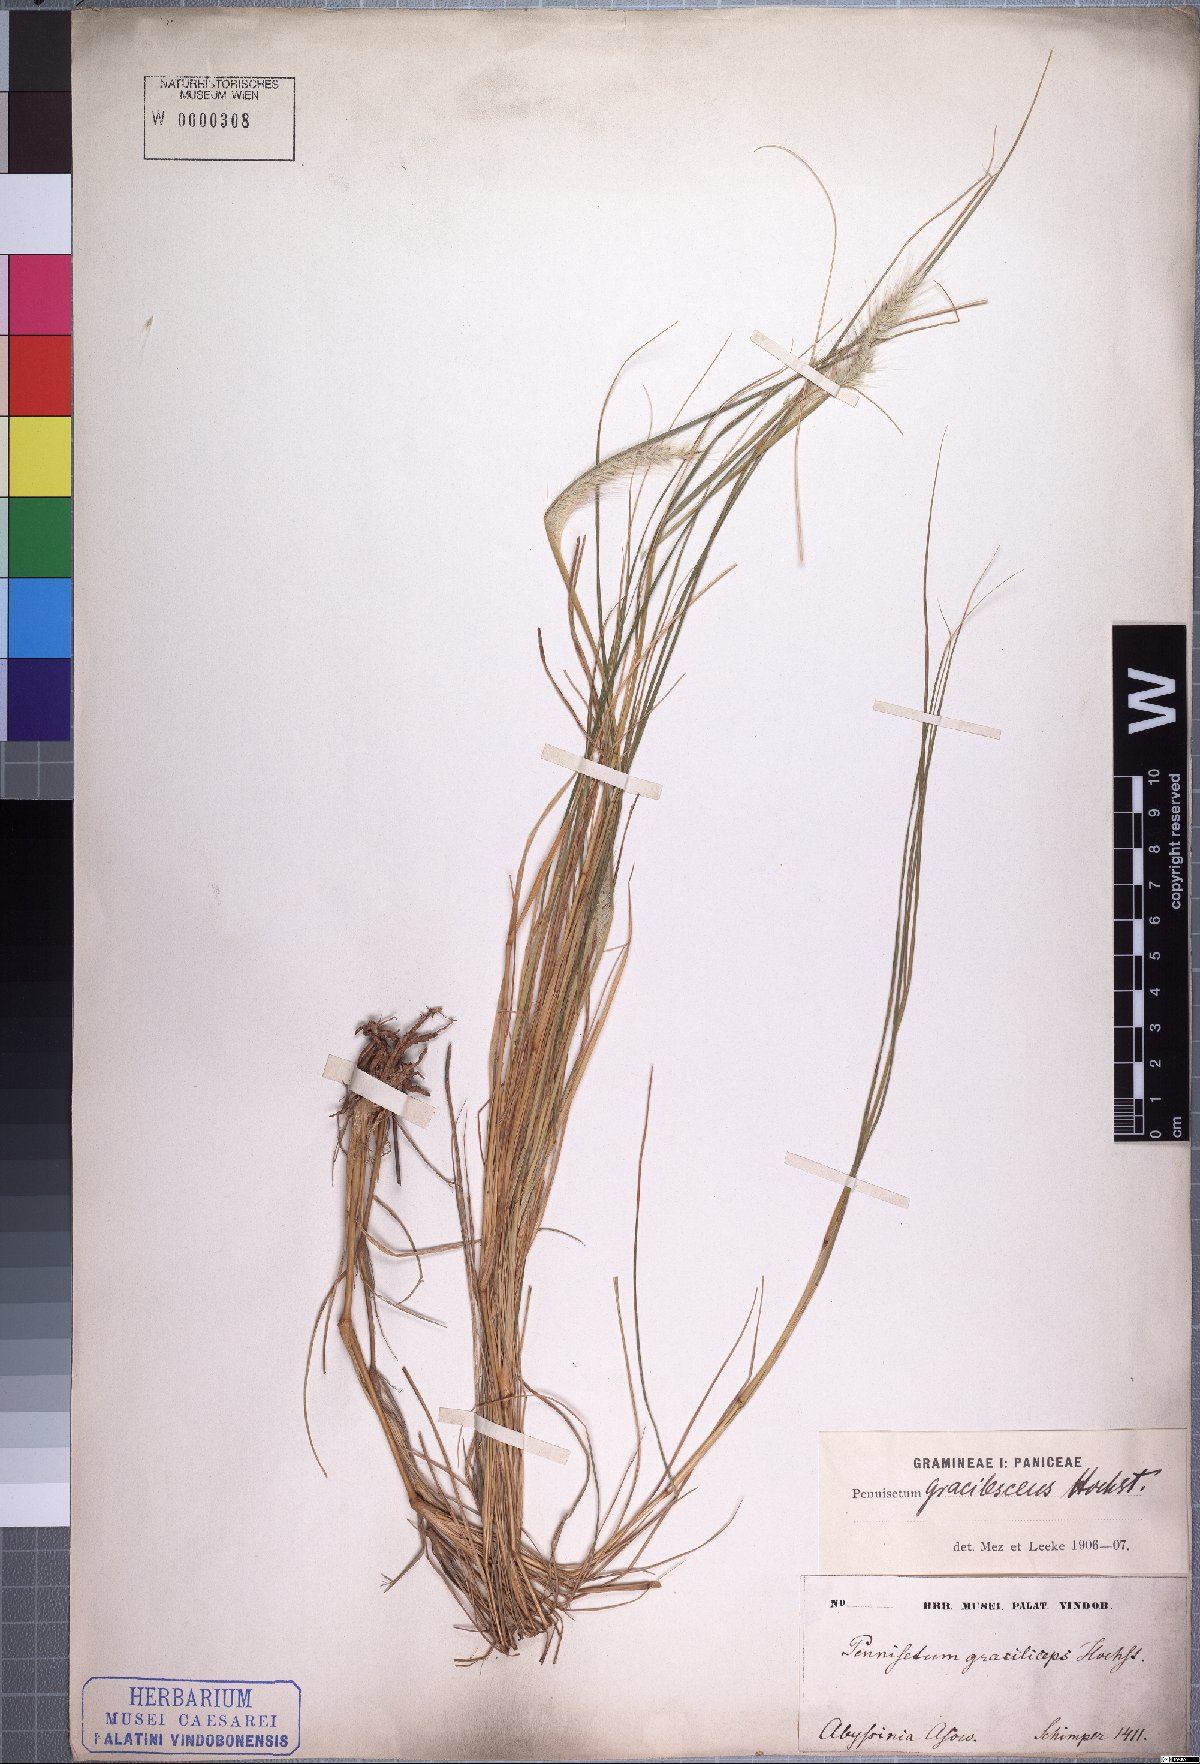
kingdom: Plantae
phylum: Tracheophyta
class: Liliopsida
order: Poales
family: Poaceae
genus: Cenchrus
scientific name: Cenchrus gracilescens
